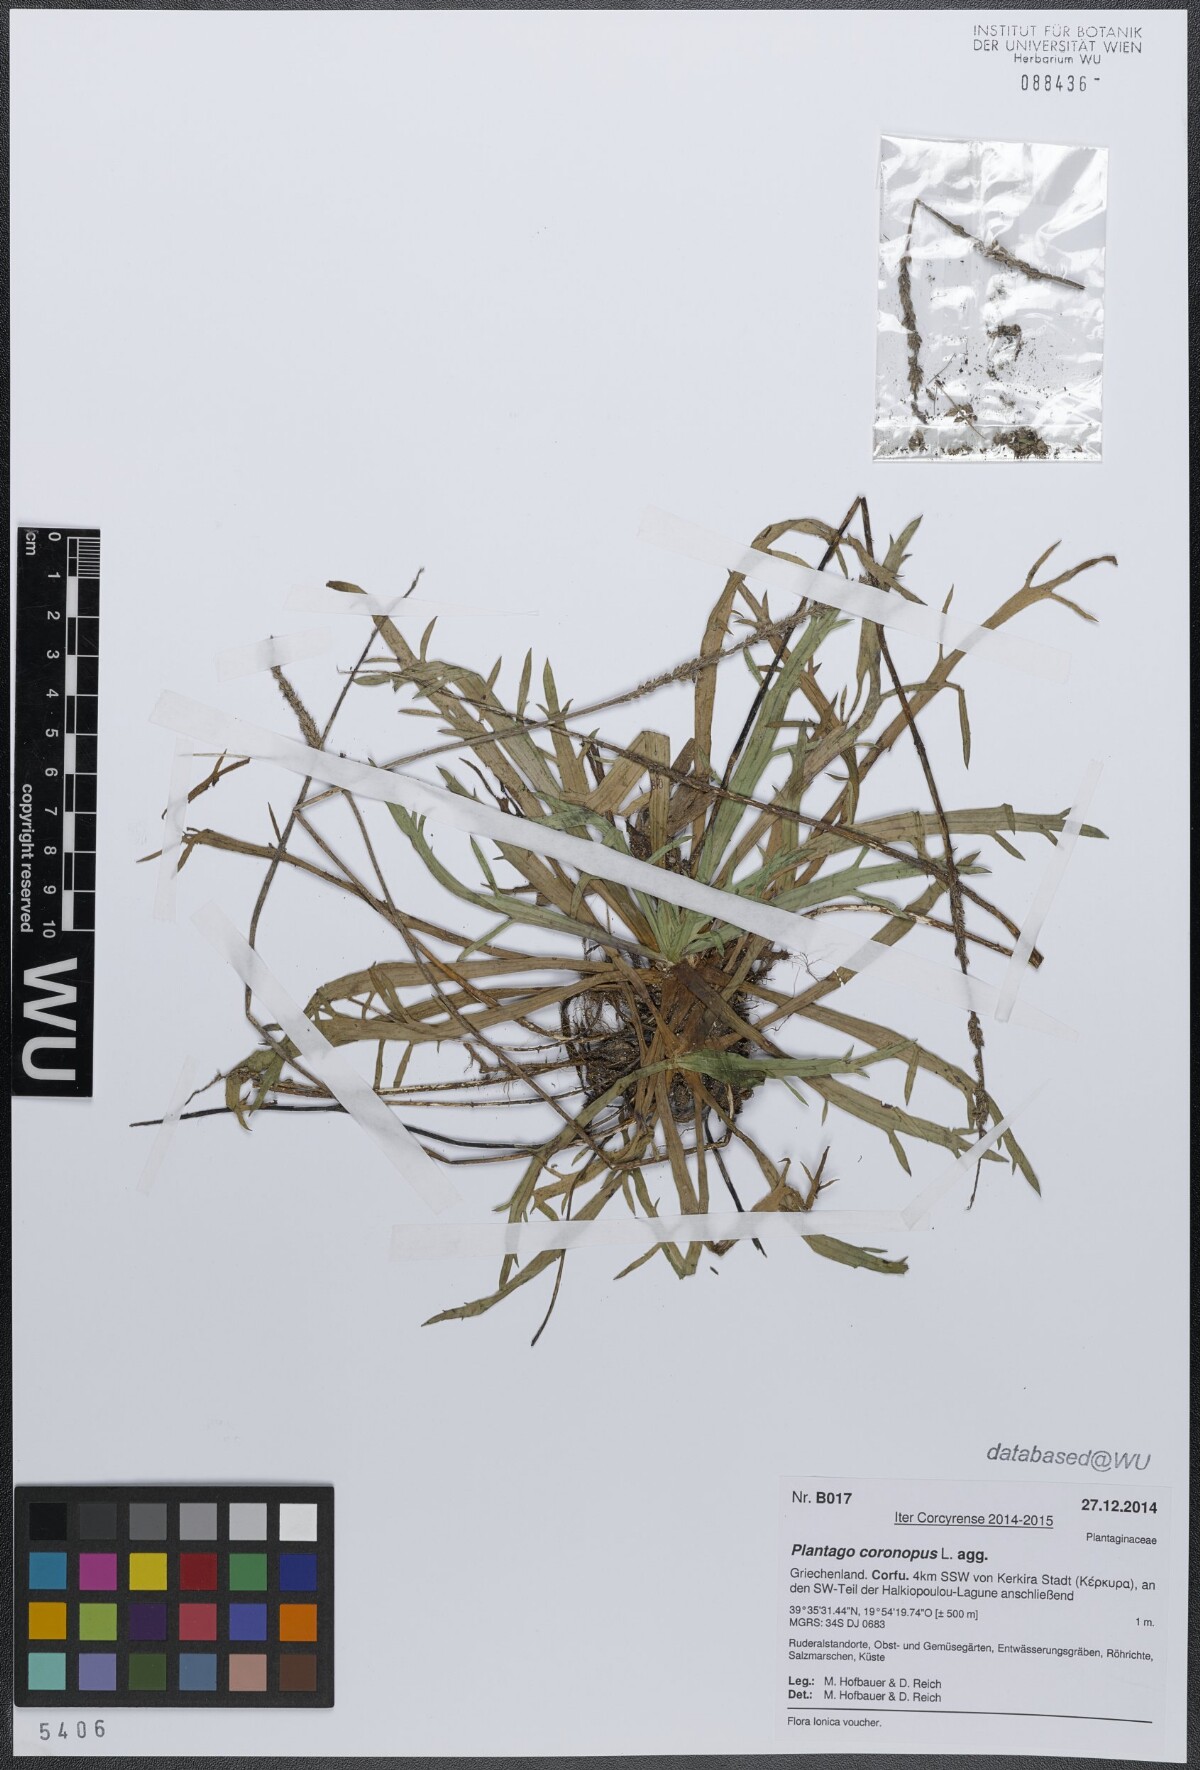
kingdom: Plantae
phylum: Tracheophyta
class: Magnoliopsida
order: Lamiales
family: Plantaginaceae
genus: Plantago
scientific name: Plantago coronopus
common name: Buck's-horn plantain
